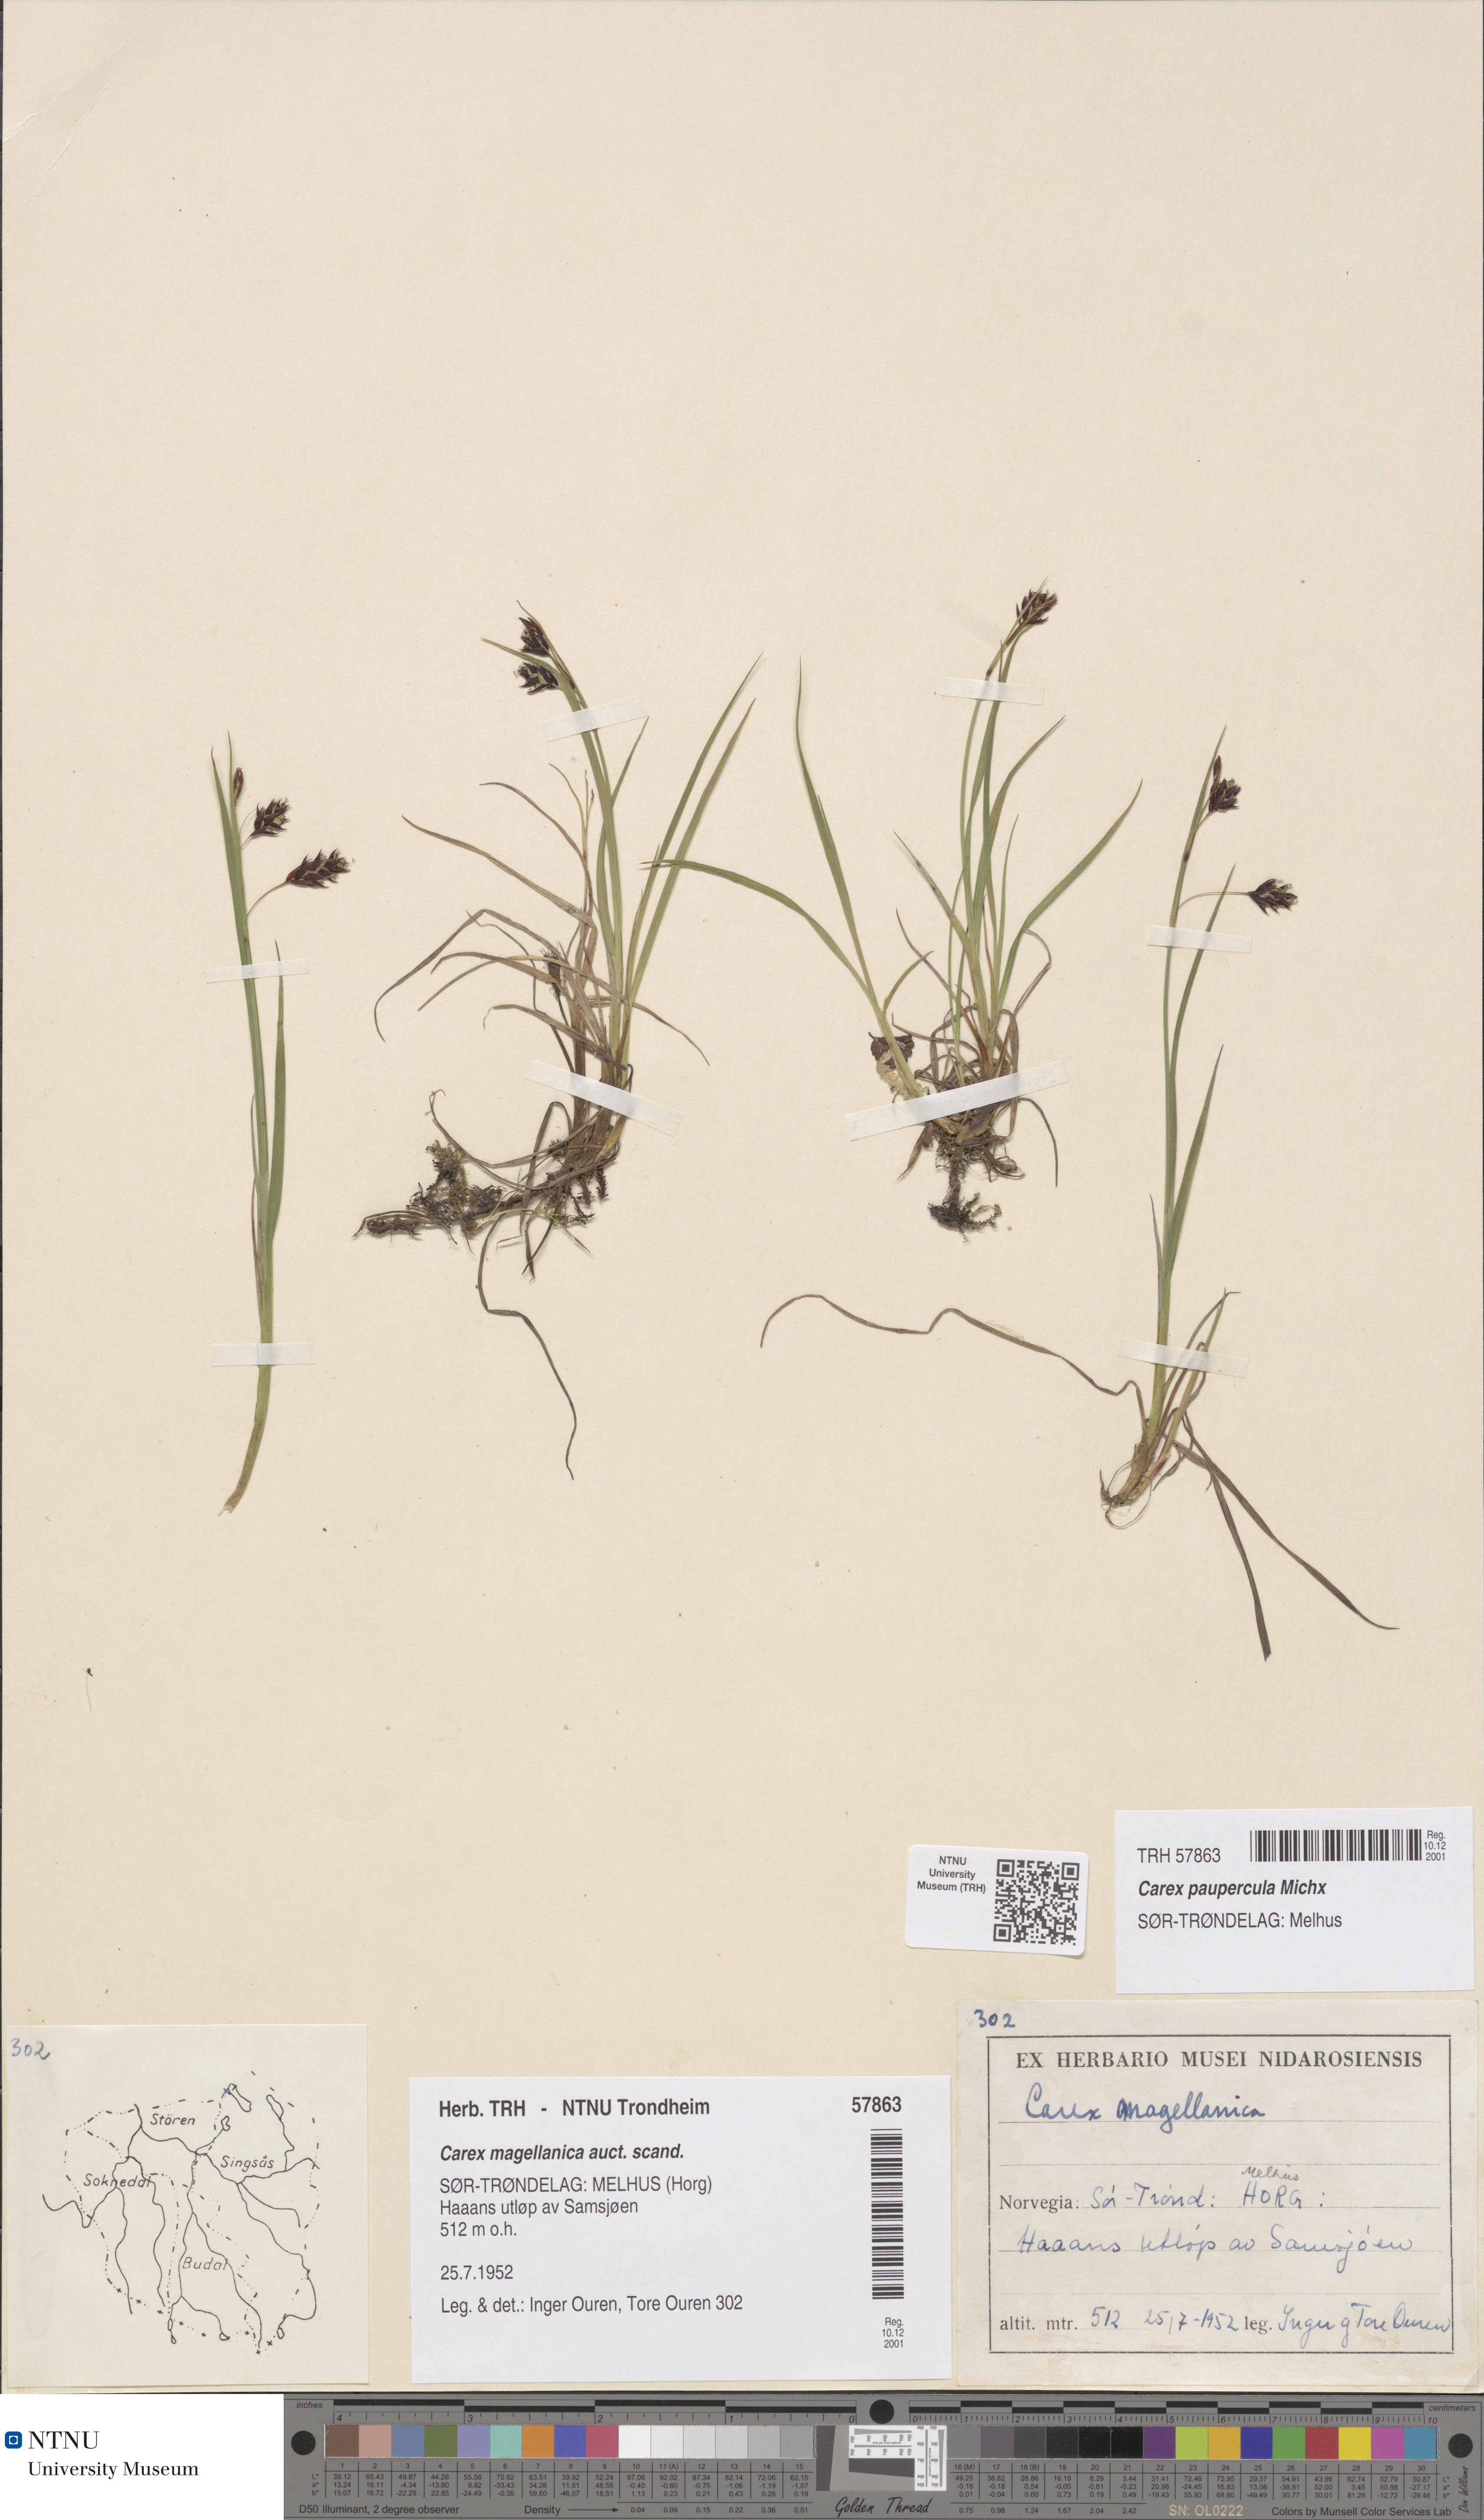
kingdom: Plantae
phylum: Tracheophyta
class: Liliopsida
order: Poales
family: Cyperaceae
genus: Carex
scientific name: Carex magellanica
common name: Bog sedge
